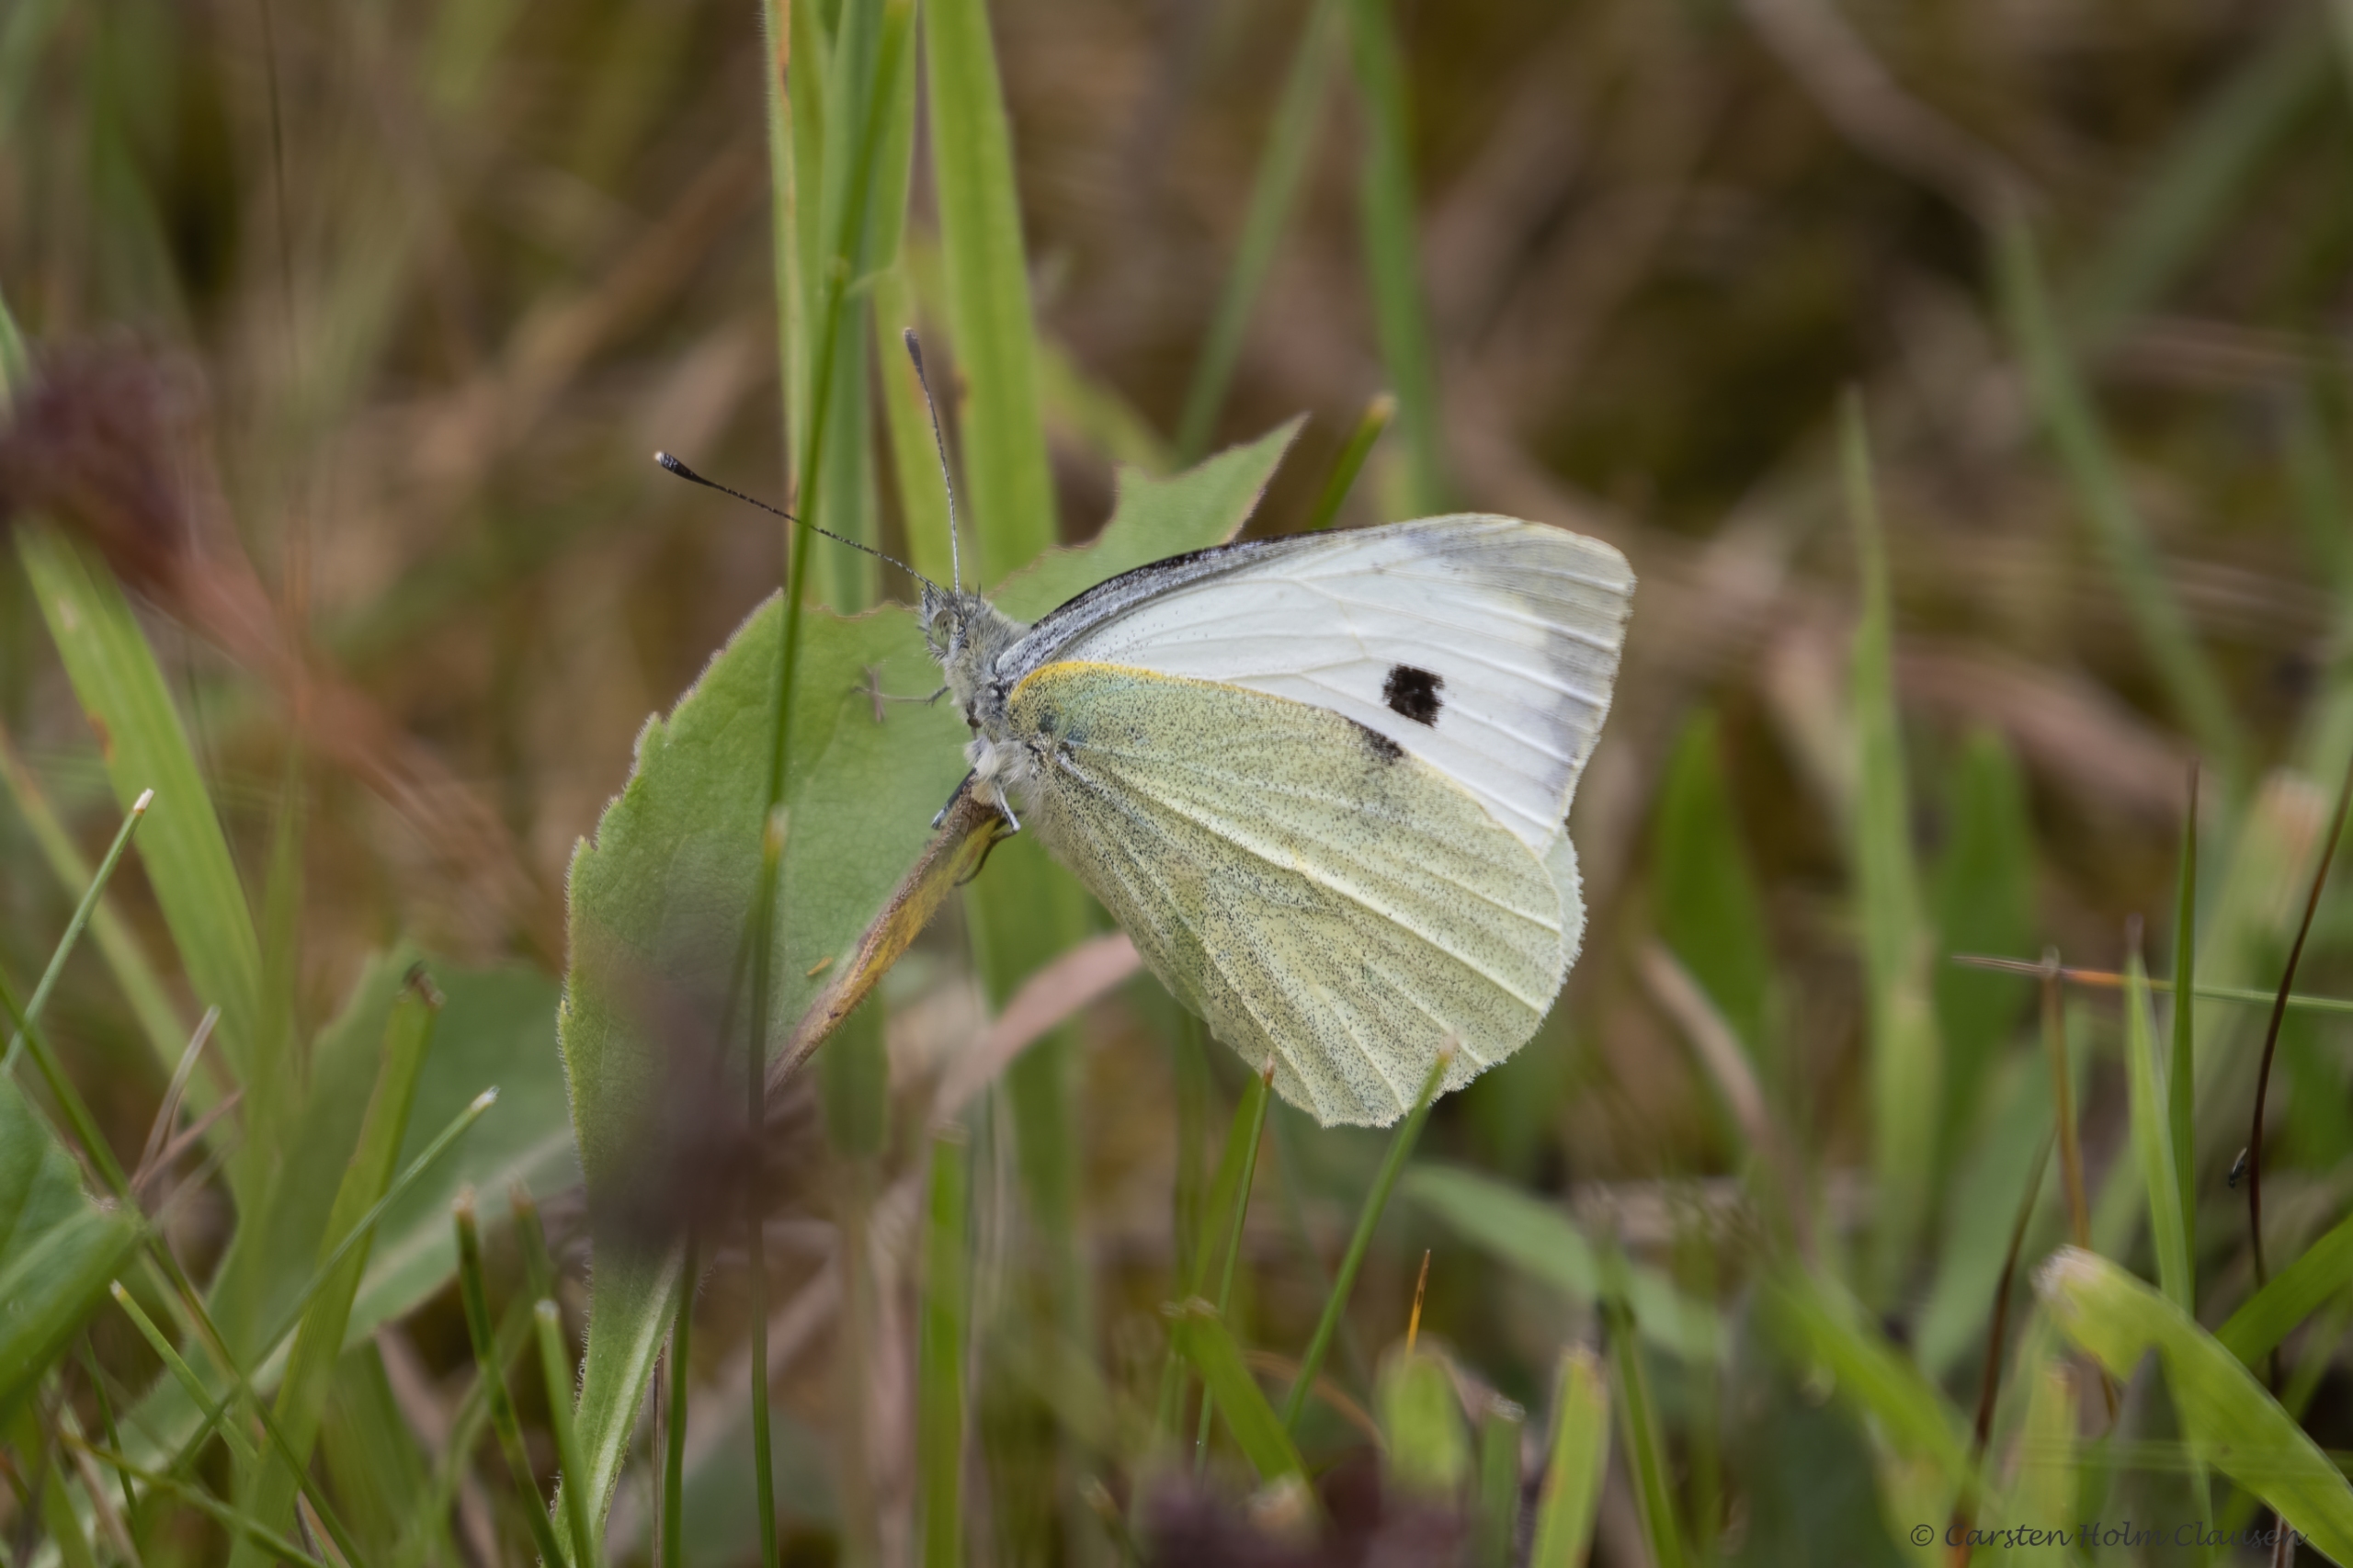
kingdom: Animalia
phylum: Arthropoda
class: Insecta
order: Lepidoptera
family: Pieridae
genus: Pieris
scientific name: Pieris brassicae
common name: Stor kålsommerfugl
